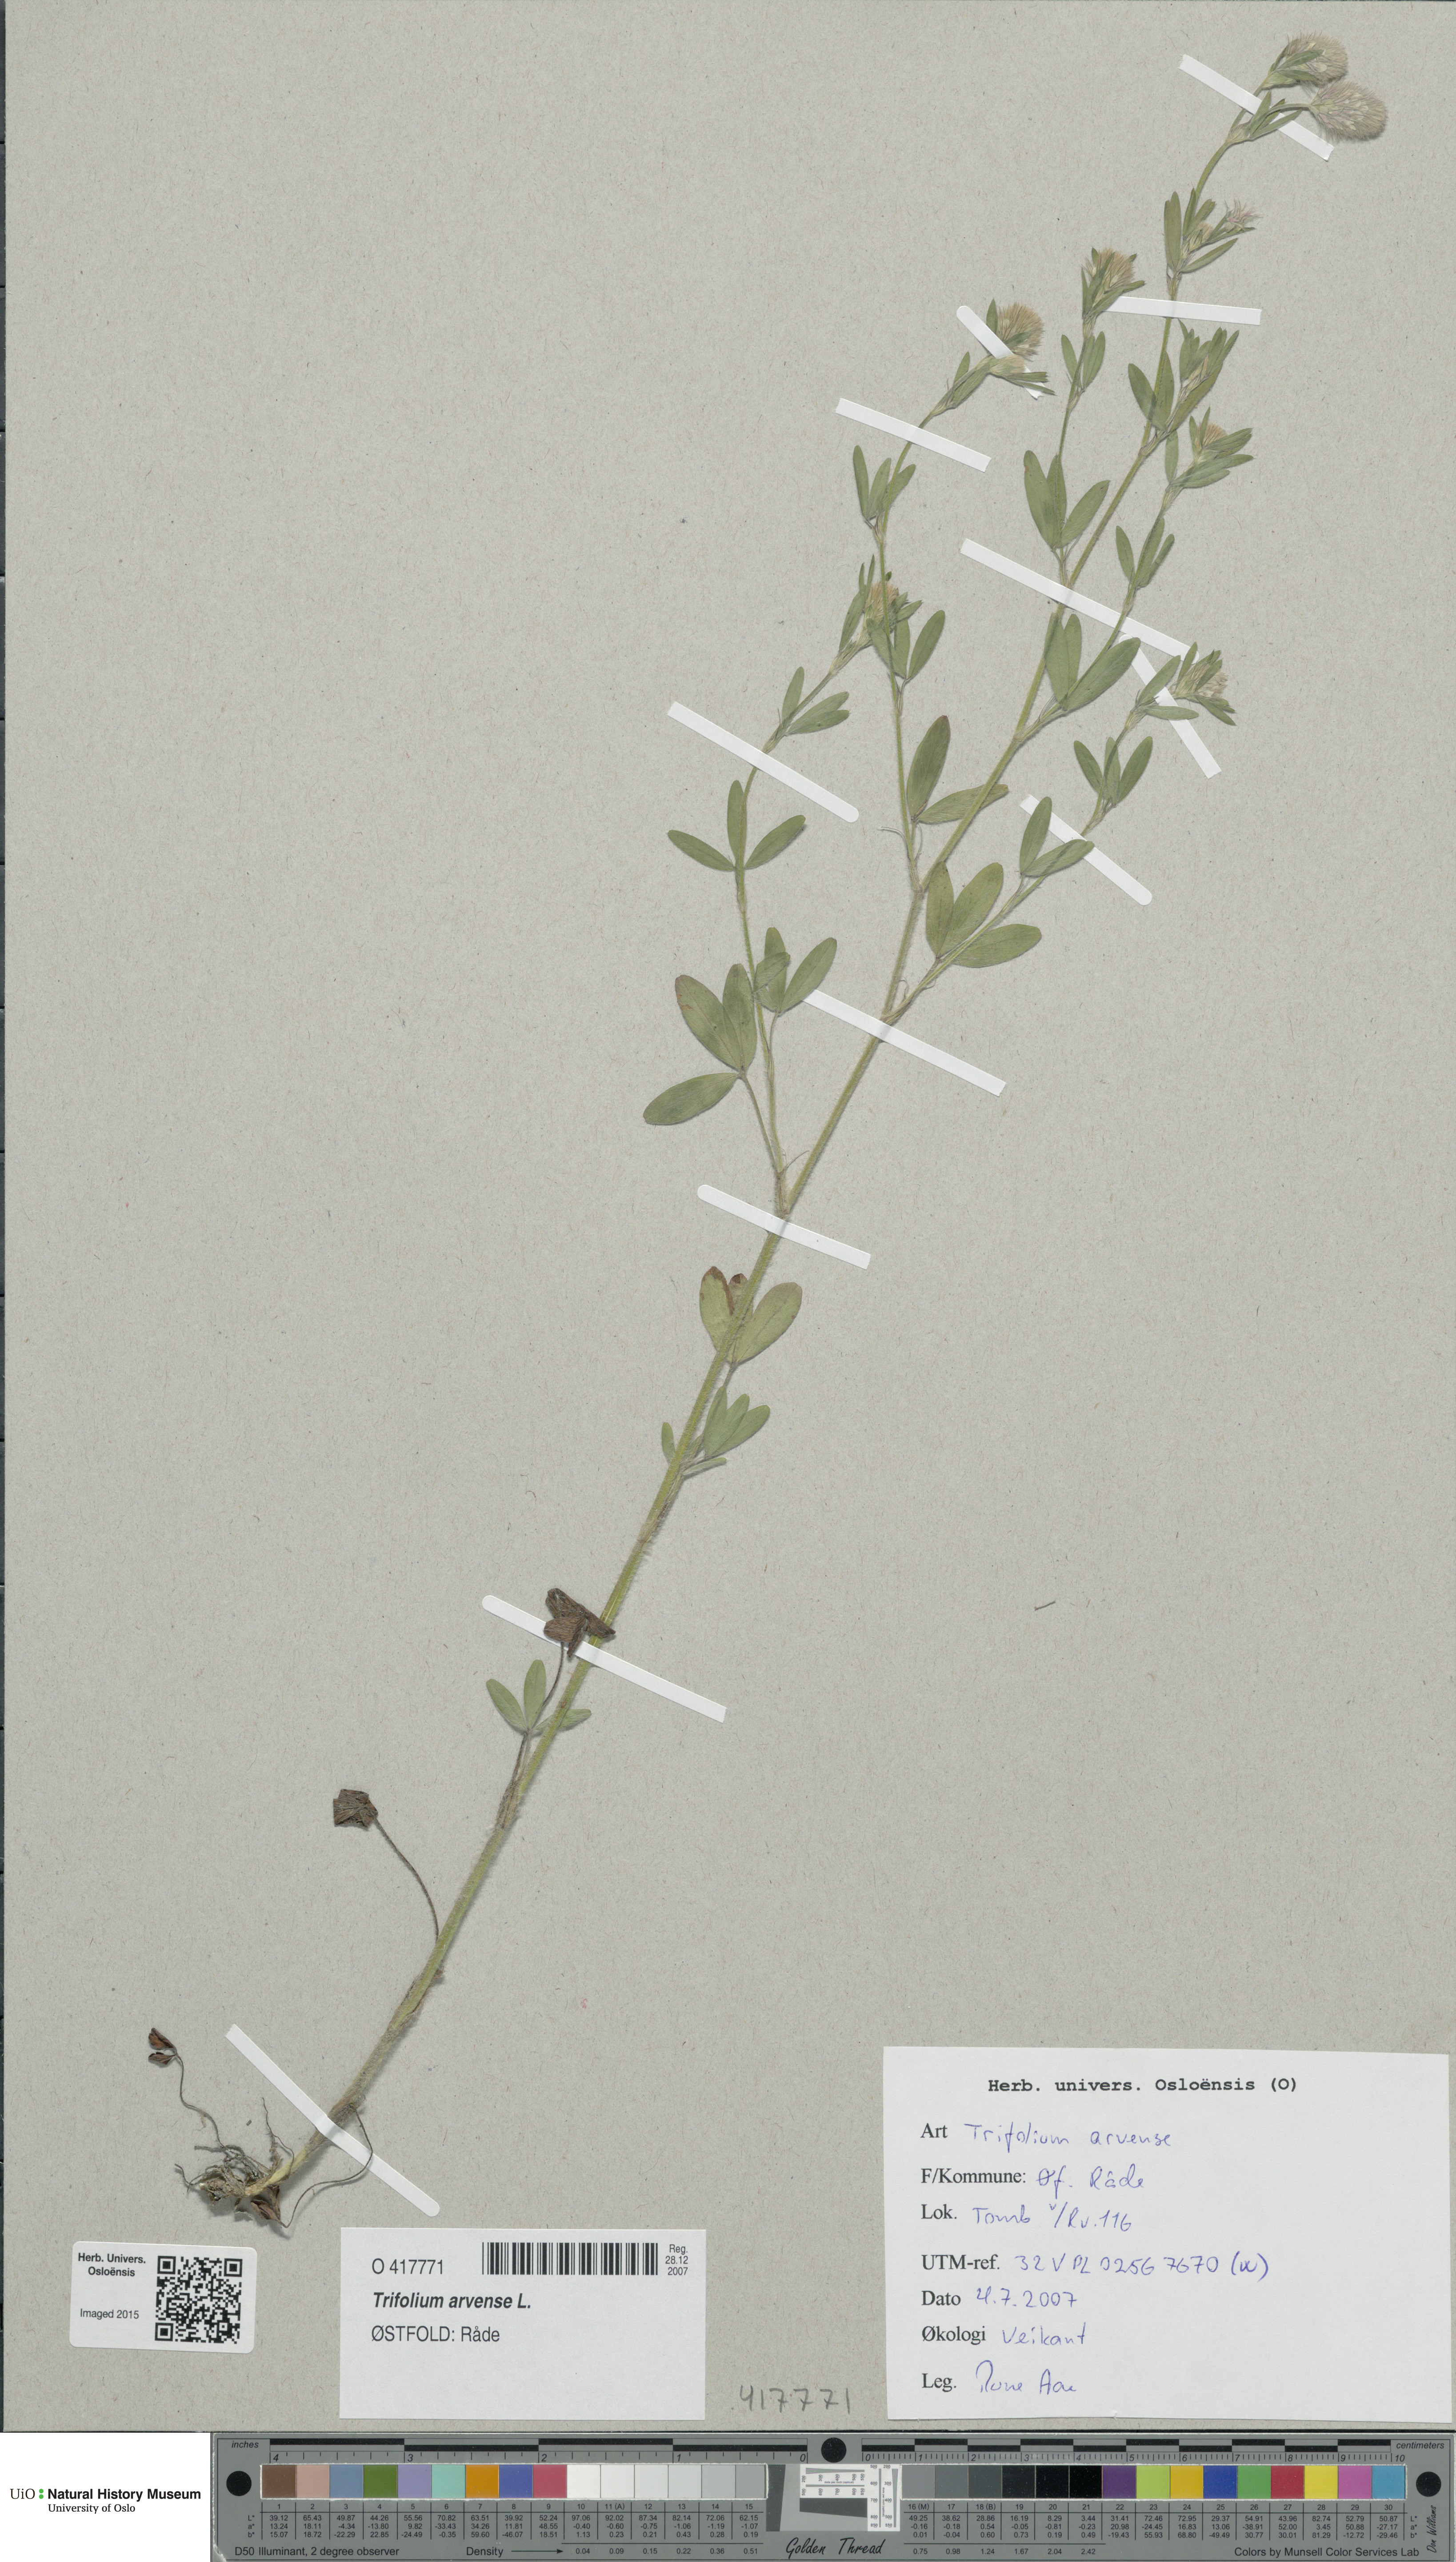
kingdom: Plantae
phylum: Tracheophyta
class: Magnoliopsida
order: Fabales
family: Fabaceae
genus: Trifolium
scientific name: Trifolium arvense
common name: Hare's-foot clover
